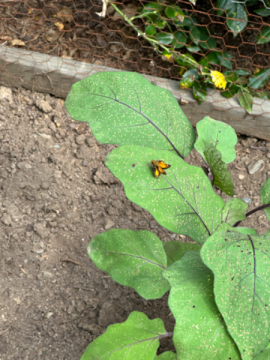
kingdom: Animalia
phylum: Arthropoda
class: Insecta
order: Lepidoptera
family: Hesperiidae
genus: Anthoptus
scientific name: Anthoptus epictetus
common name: Trailside Skipper
